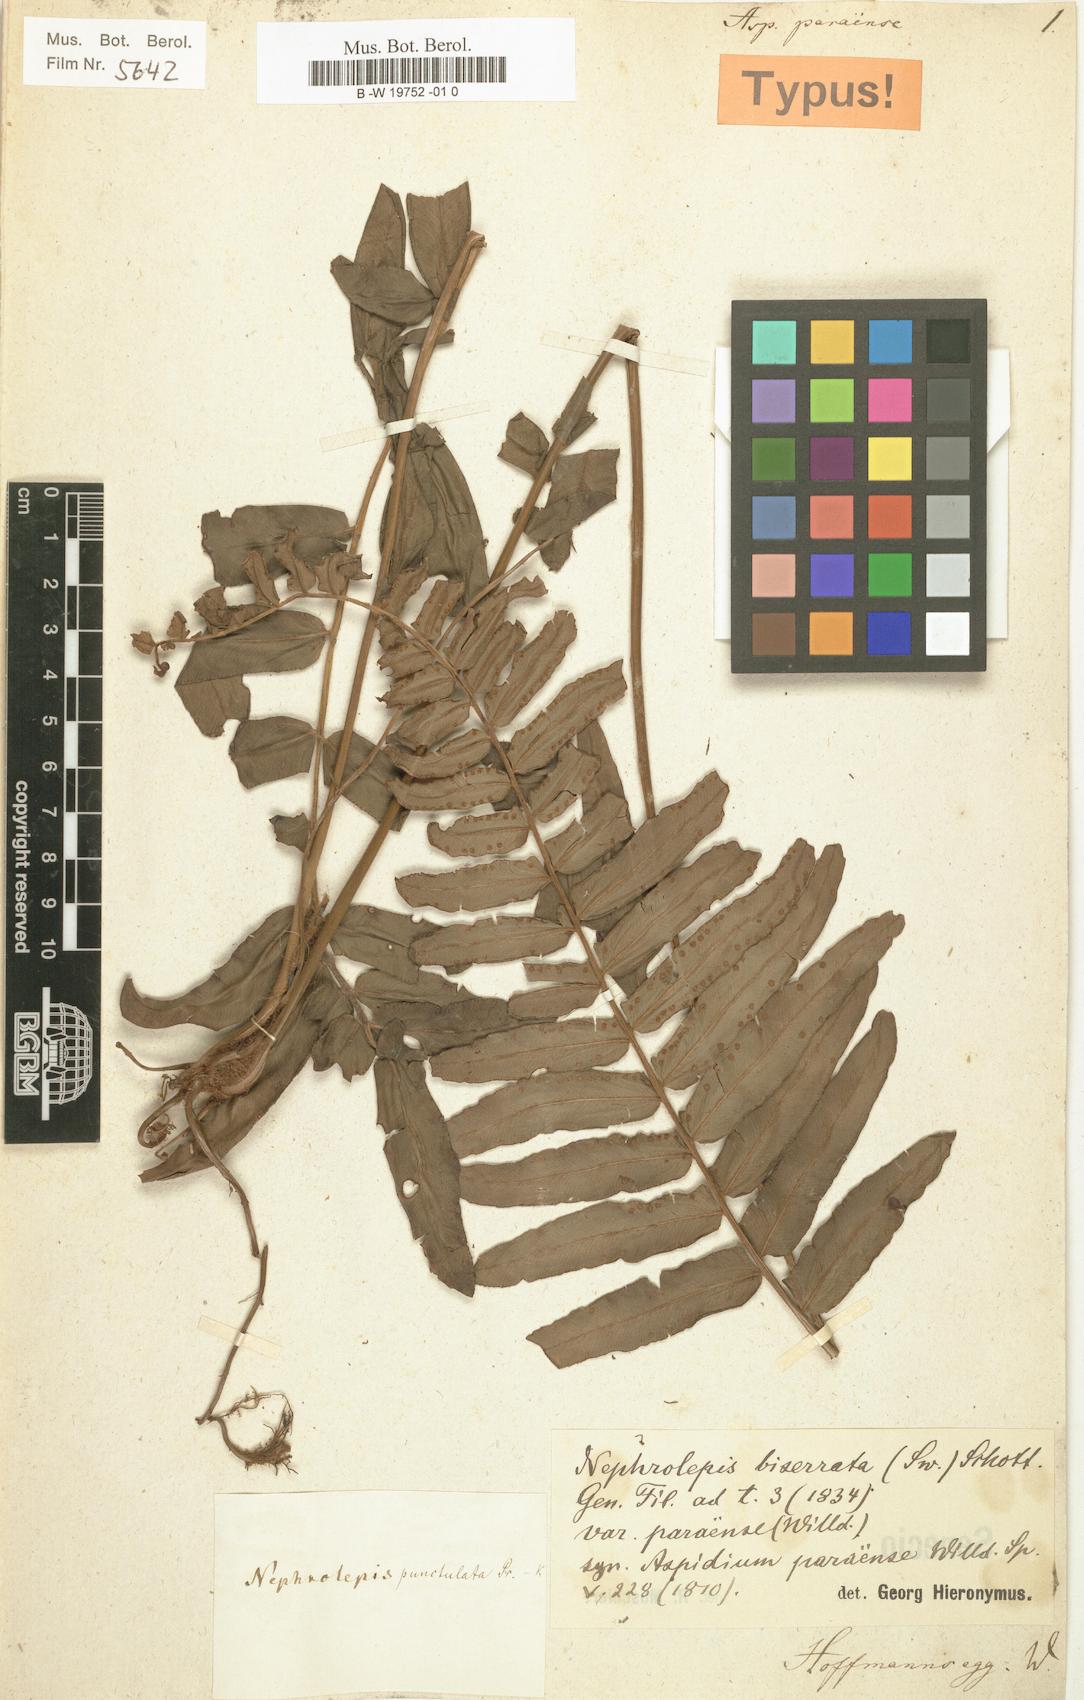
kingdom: Plantae
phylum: Tracheophyta
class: Polypodiopsida
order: Polypodiales
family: Nephrolepidaceae
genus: Nephrolepis
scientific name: Nephrolepis biserrata
